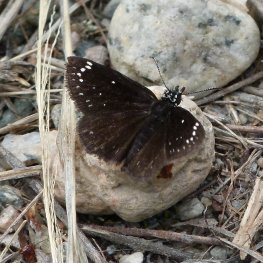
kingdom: Animalia
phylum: Arthropoda
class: Insecta
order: Lepidoptera
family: Hesperiidae
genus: Pholisora
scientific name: Pholisora catullus
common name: Common Sootywing
